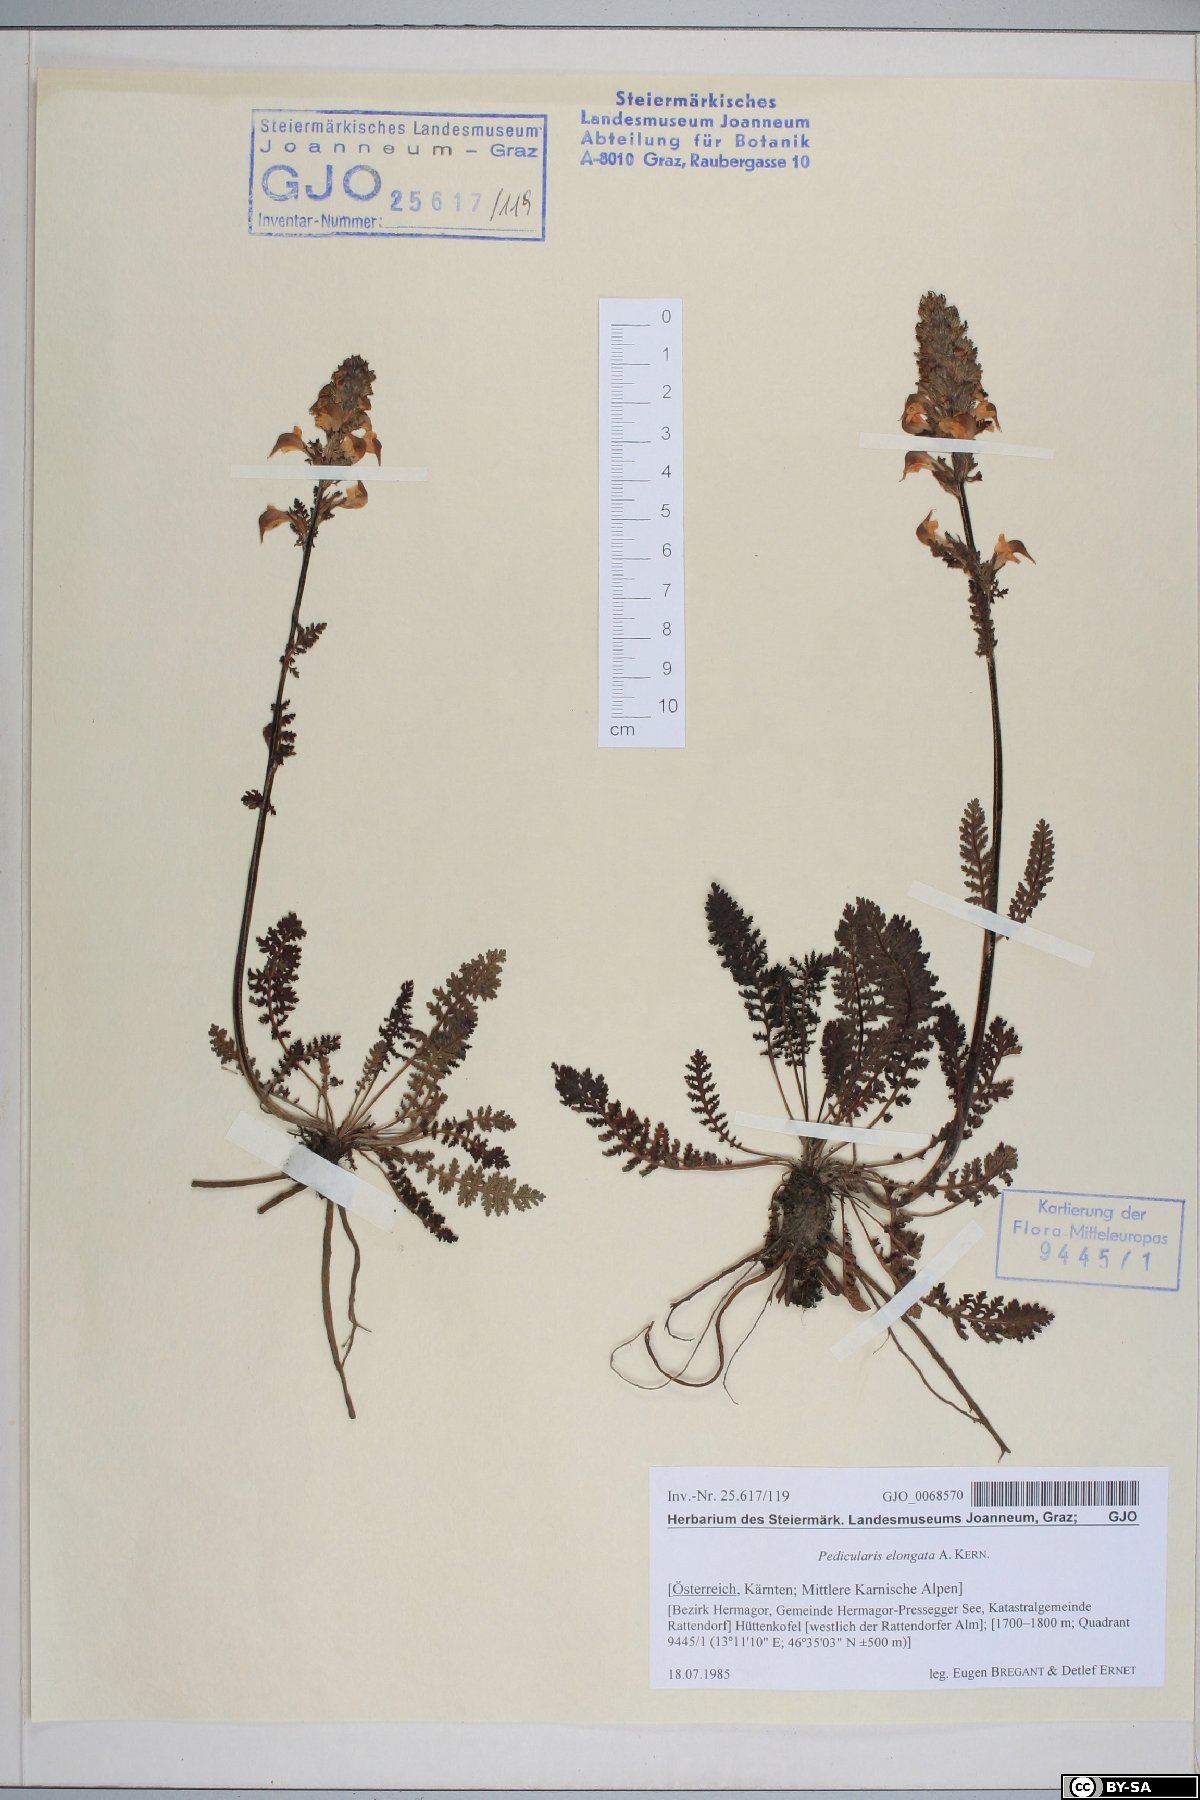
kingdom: Plantae
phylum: Tracheophyta
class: Magnoliopsida
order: Lamiales
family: Orobanchaceae
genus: Pedicularis
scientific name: Pedicularis elongata
